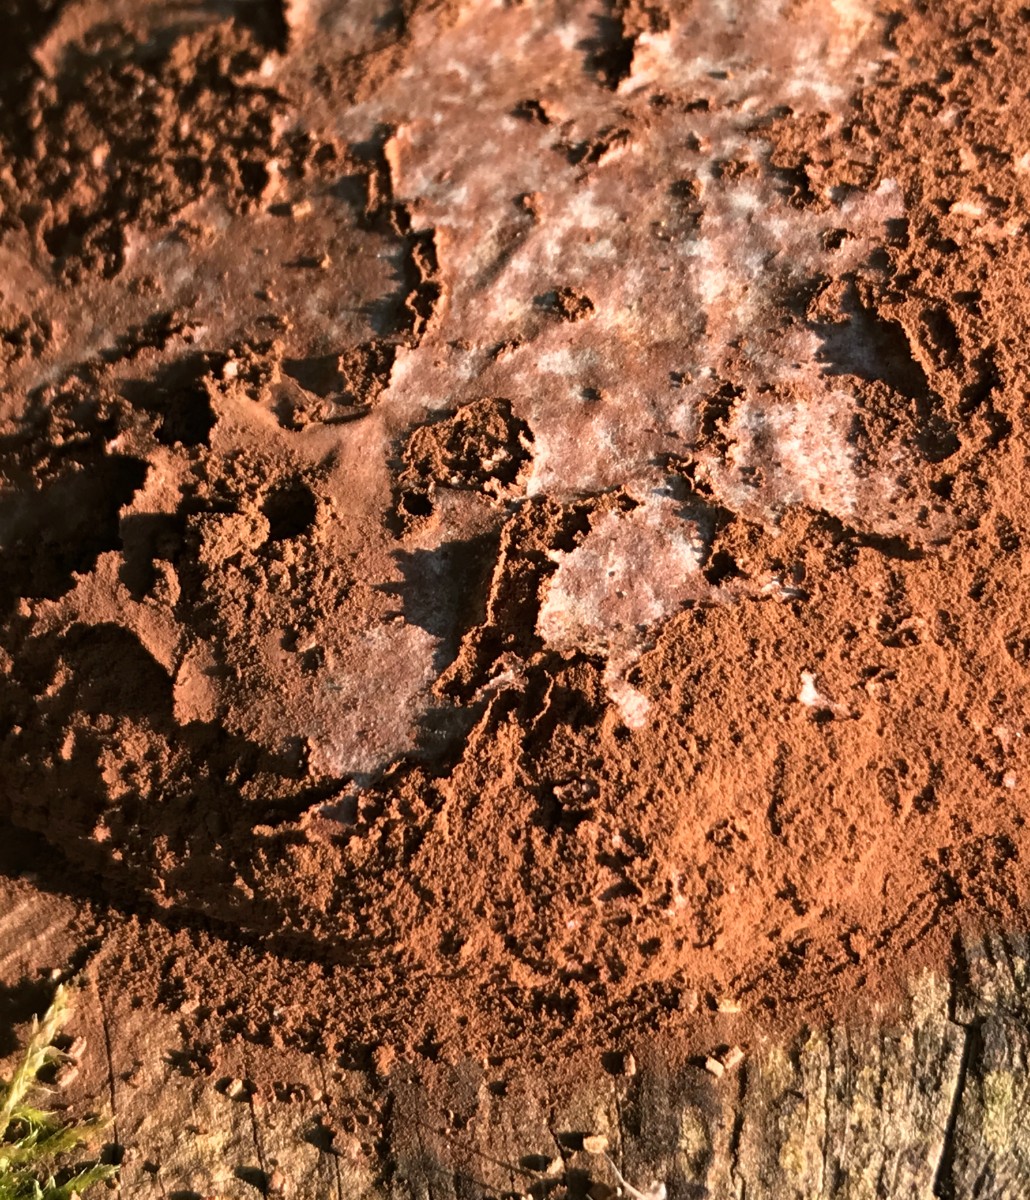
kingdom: Protozoa
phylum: Mycetozoa
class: Myxomycetes
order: Cribrariales
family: Tubiferaceae
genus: Reticularia
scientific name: Reticularia lycoperdon
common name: skinnende støvpude
